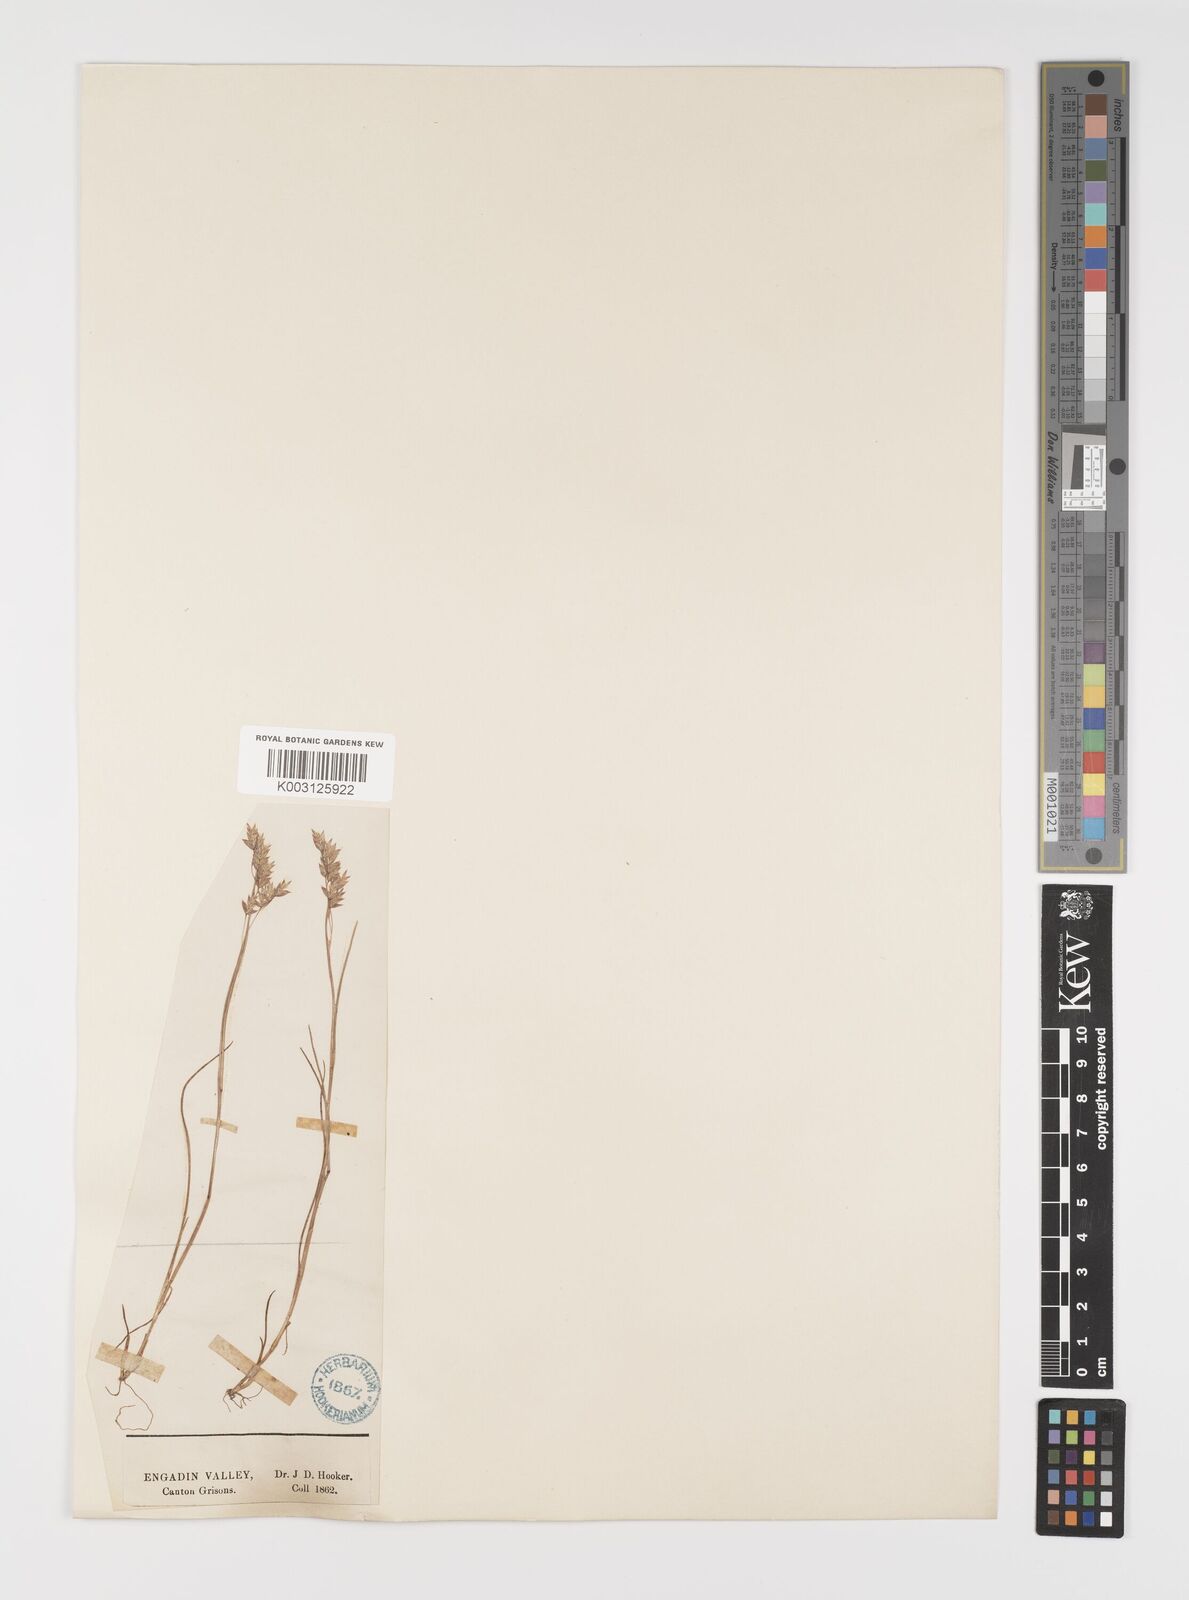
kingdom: Plantae
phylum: Tracheophyta
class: Liliopsida
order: Poales
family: Poaceae
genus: Poa
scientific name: Poa laxa
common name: Lax bluegrass
